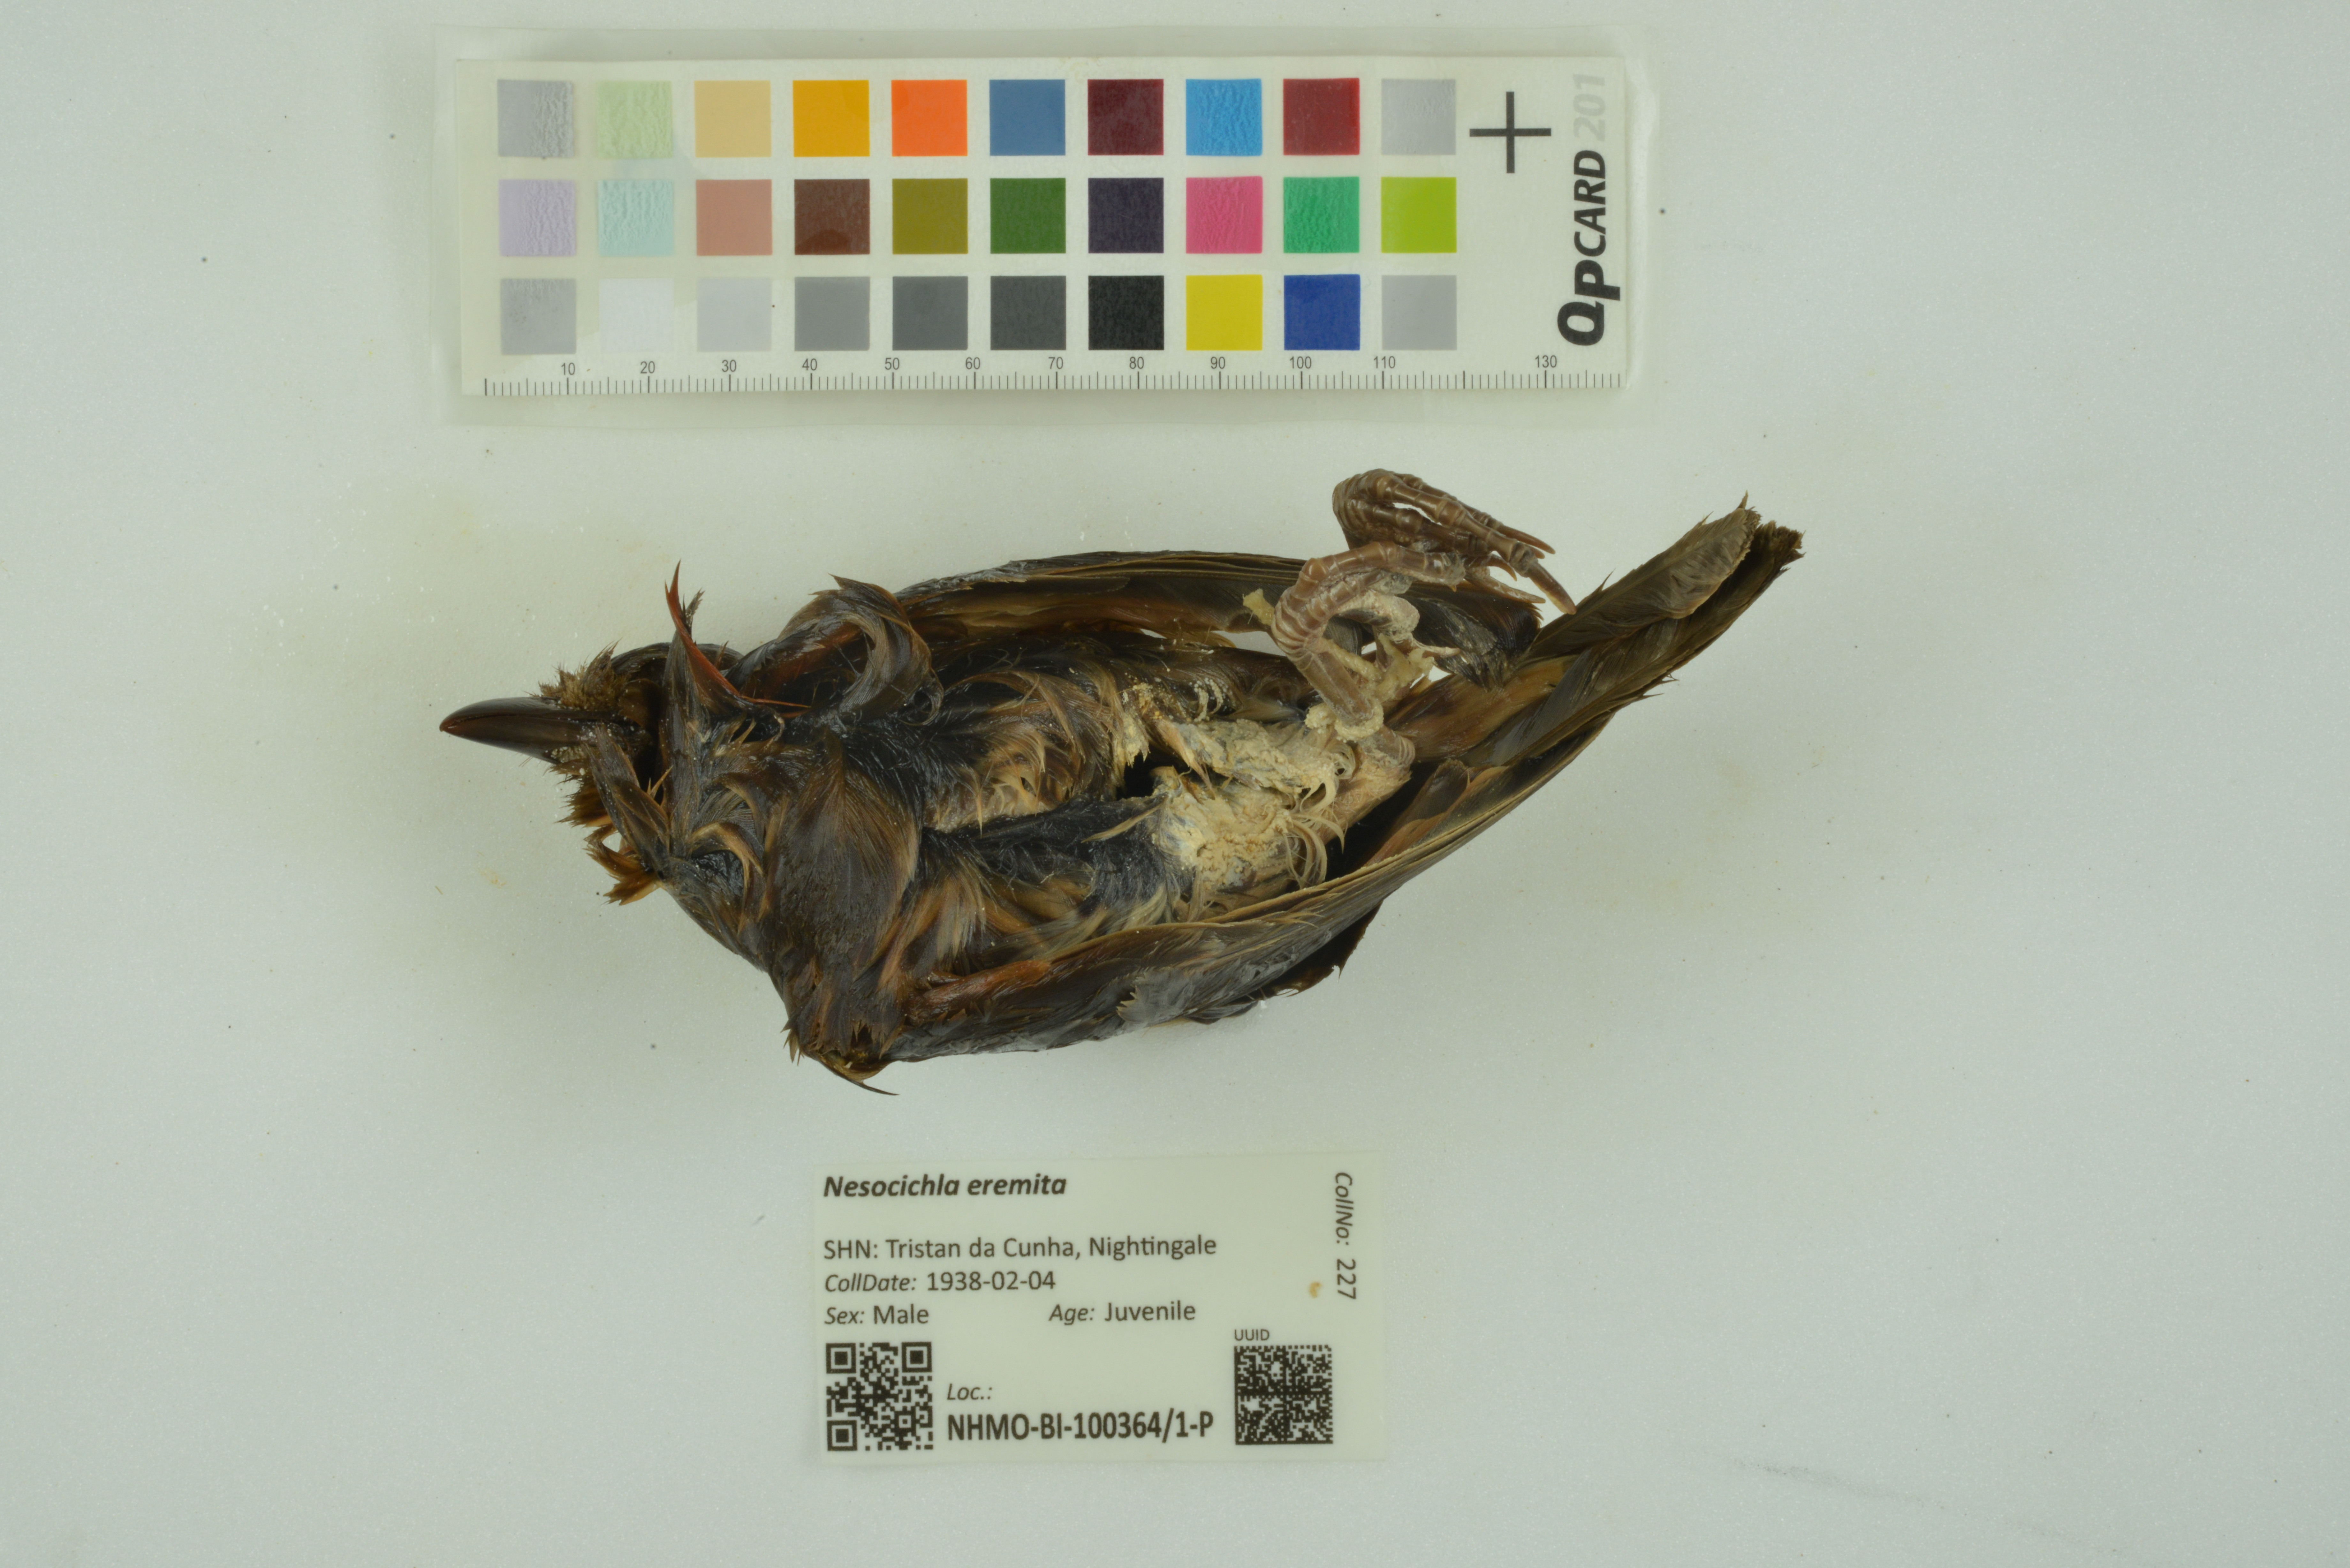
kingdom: Animalia
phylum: Chordata
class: Aves
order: Passeriformes
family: Turdidae
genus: Nesocichla
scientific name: Nesocichla eremita
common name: Tristan thrush
